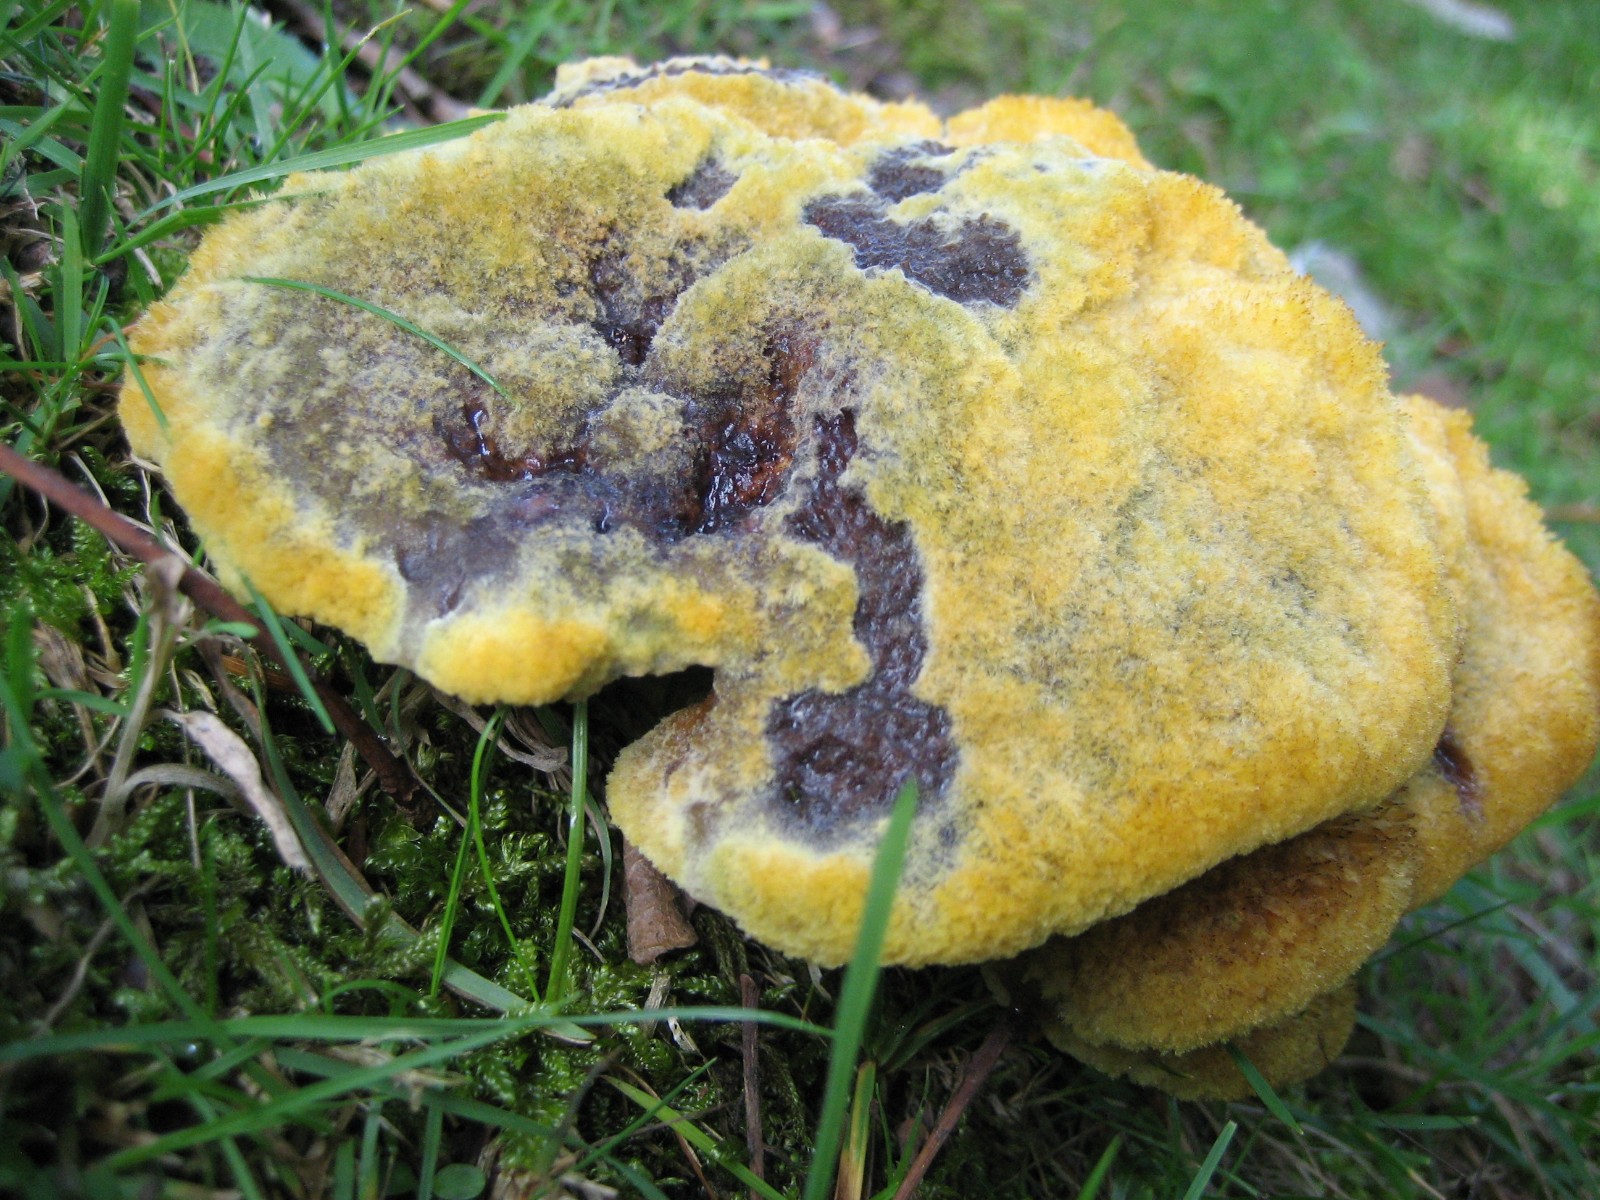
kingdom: Fungi
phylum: Basidiomycota
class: Agaricomycetes
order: Polyporales
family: Laetiporaceae
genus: Phaeolus
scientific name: Phaeolus schweinitzii
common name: brunporesvamp
